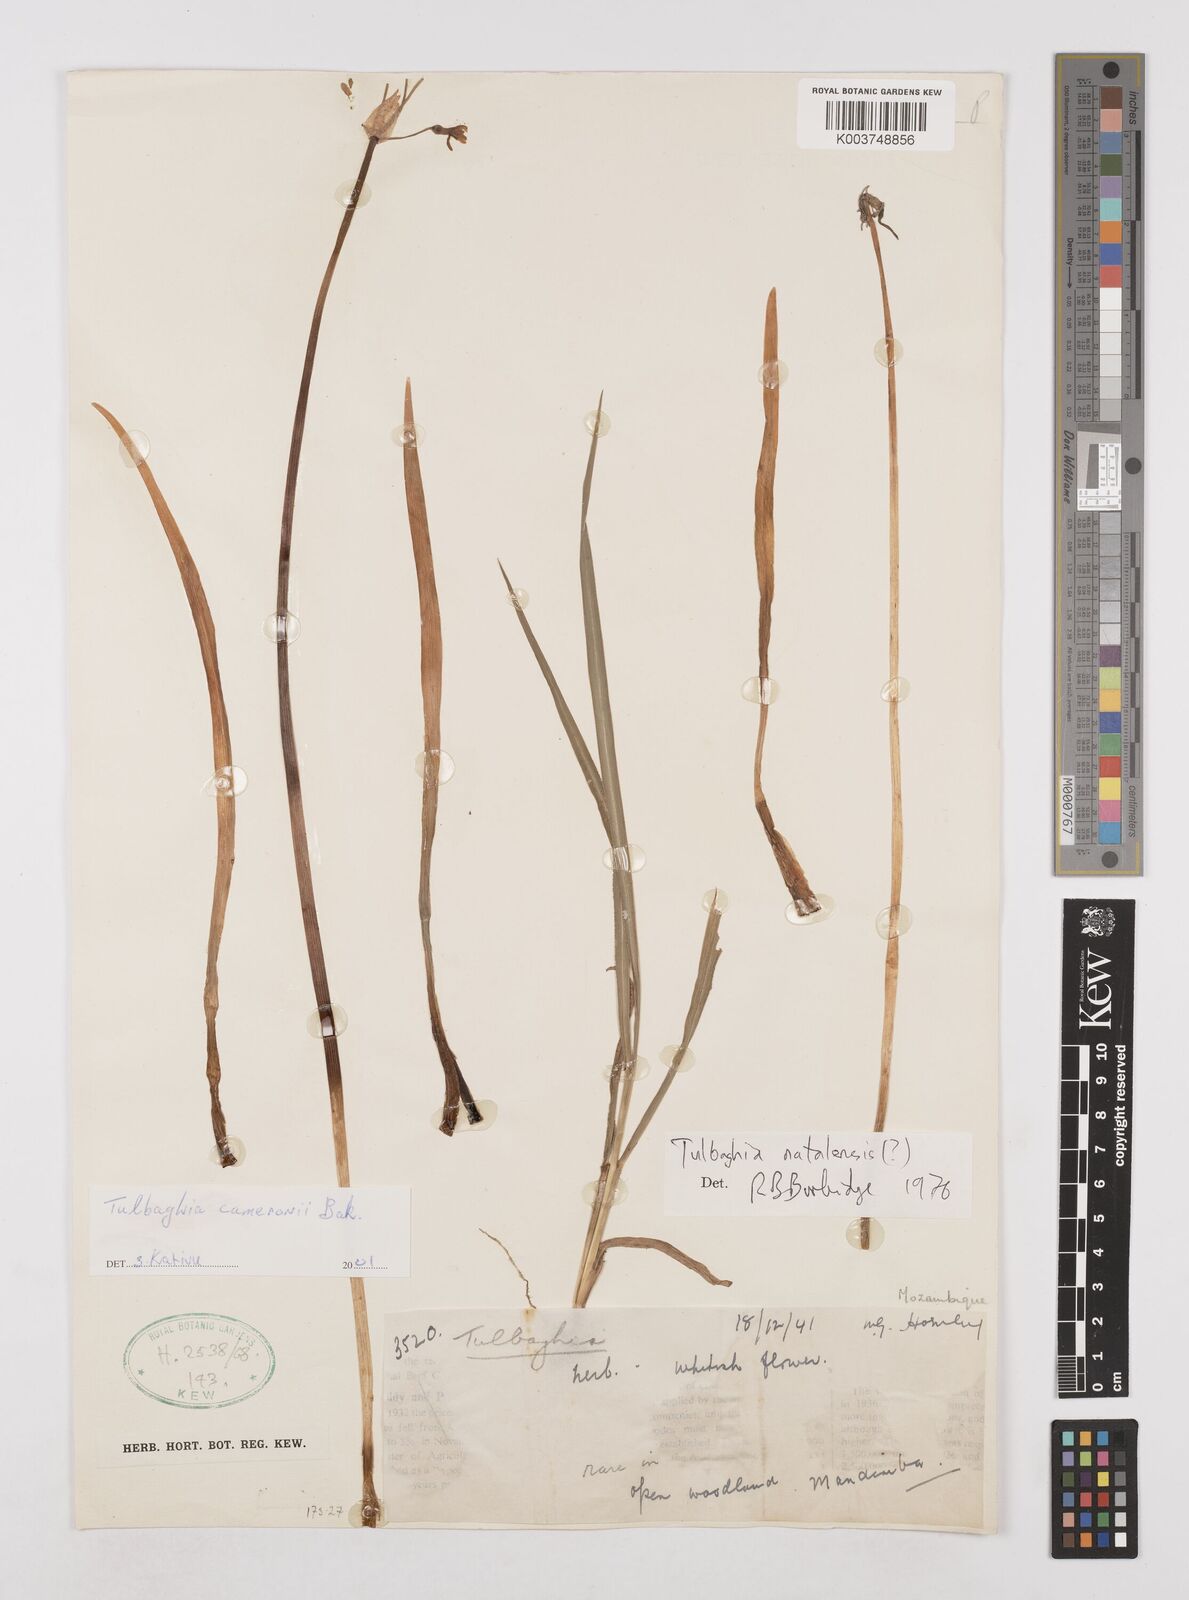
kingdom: Plantae
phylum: Tracheophyta
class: Liliopsida
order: Asparagales
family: Amaryllidaceae
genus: Tulbaghia
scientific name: Tulbaghia cameronii
